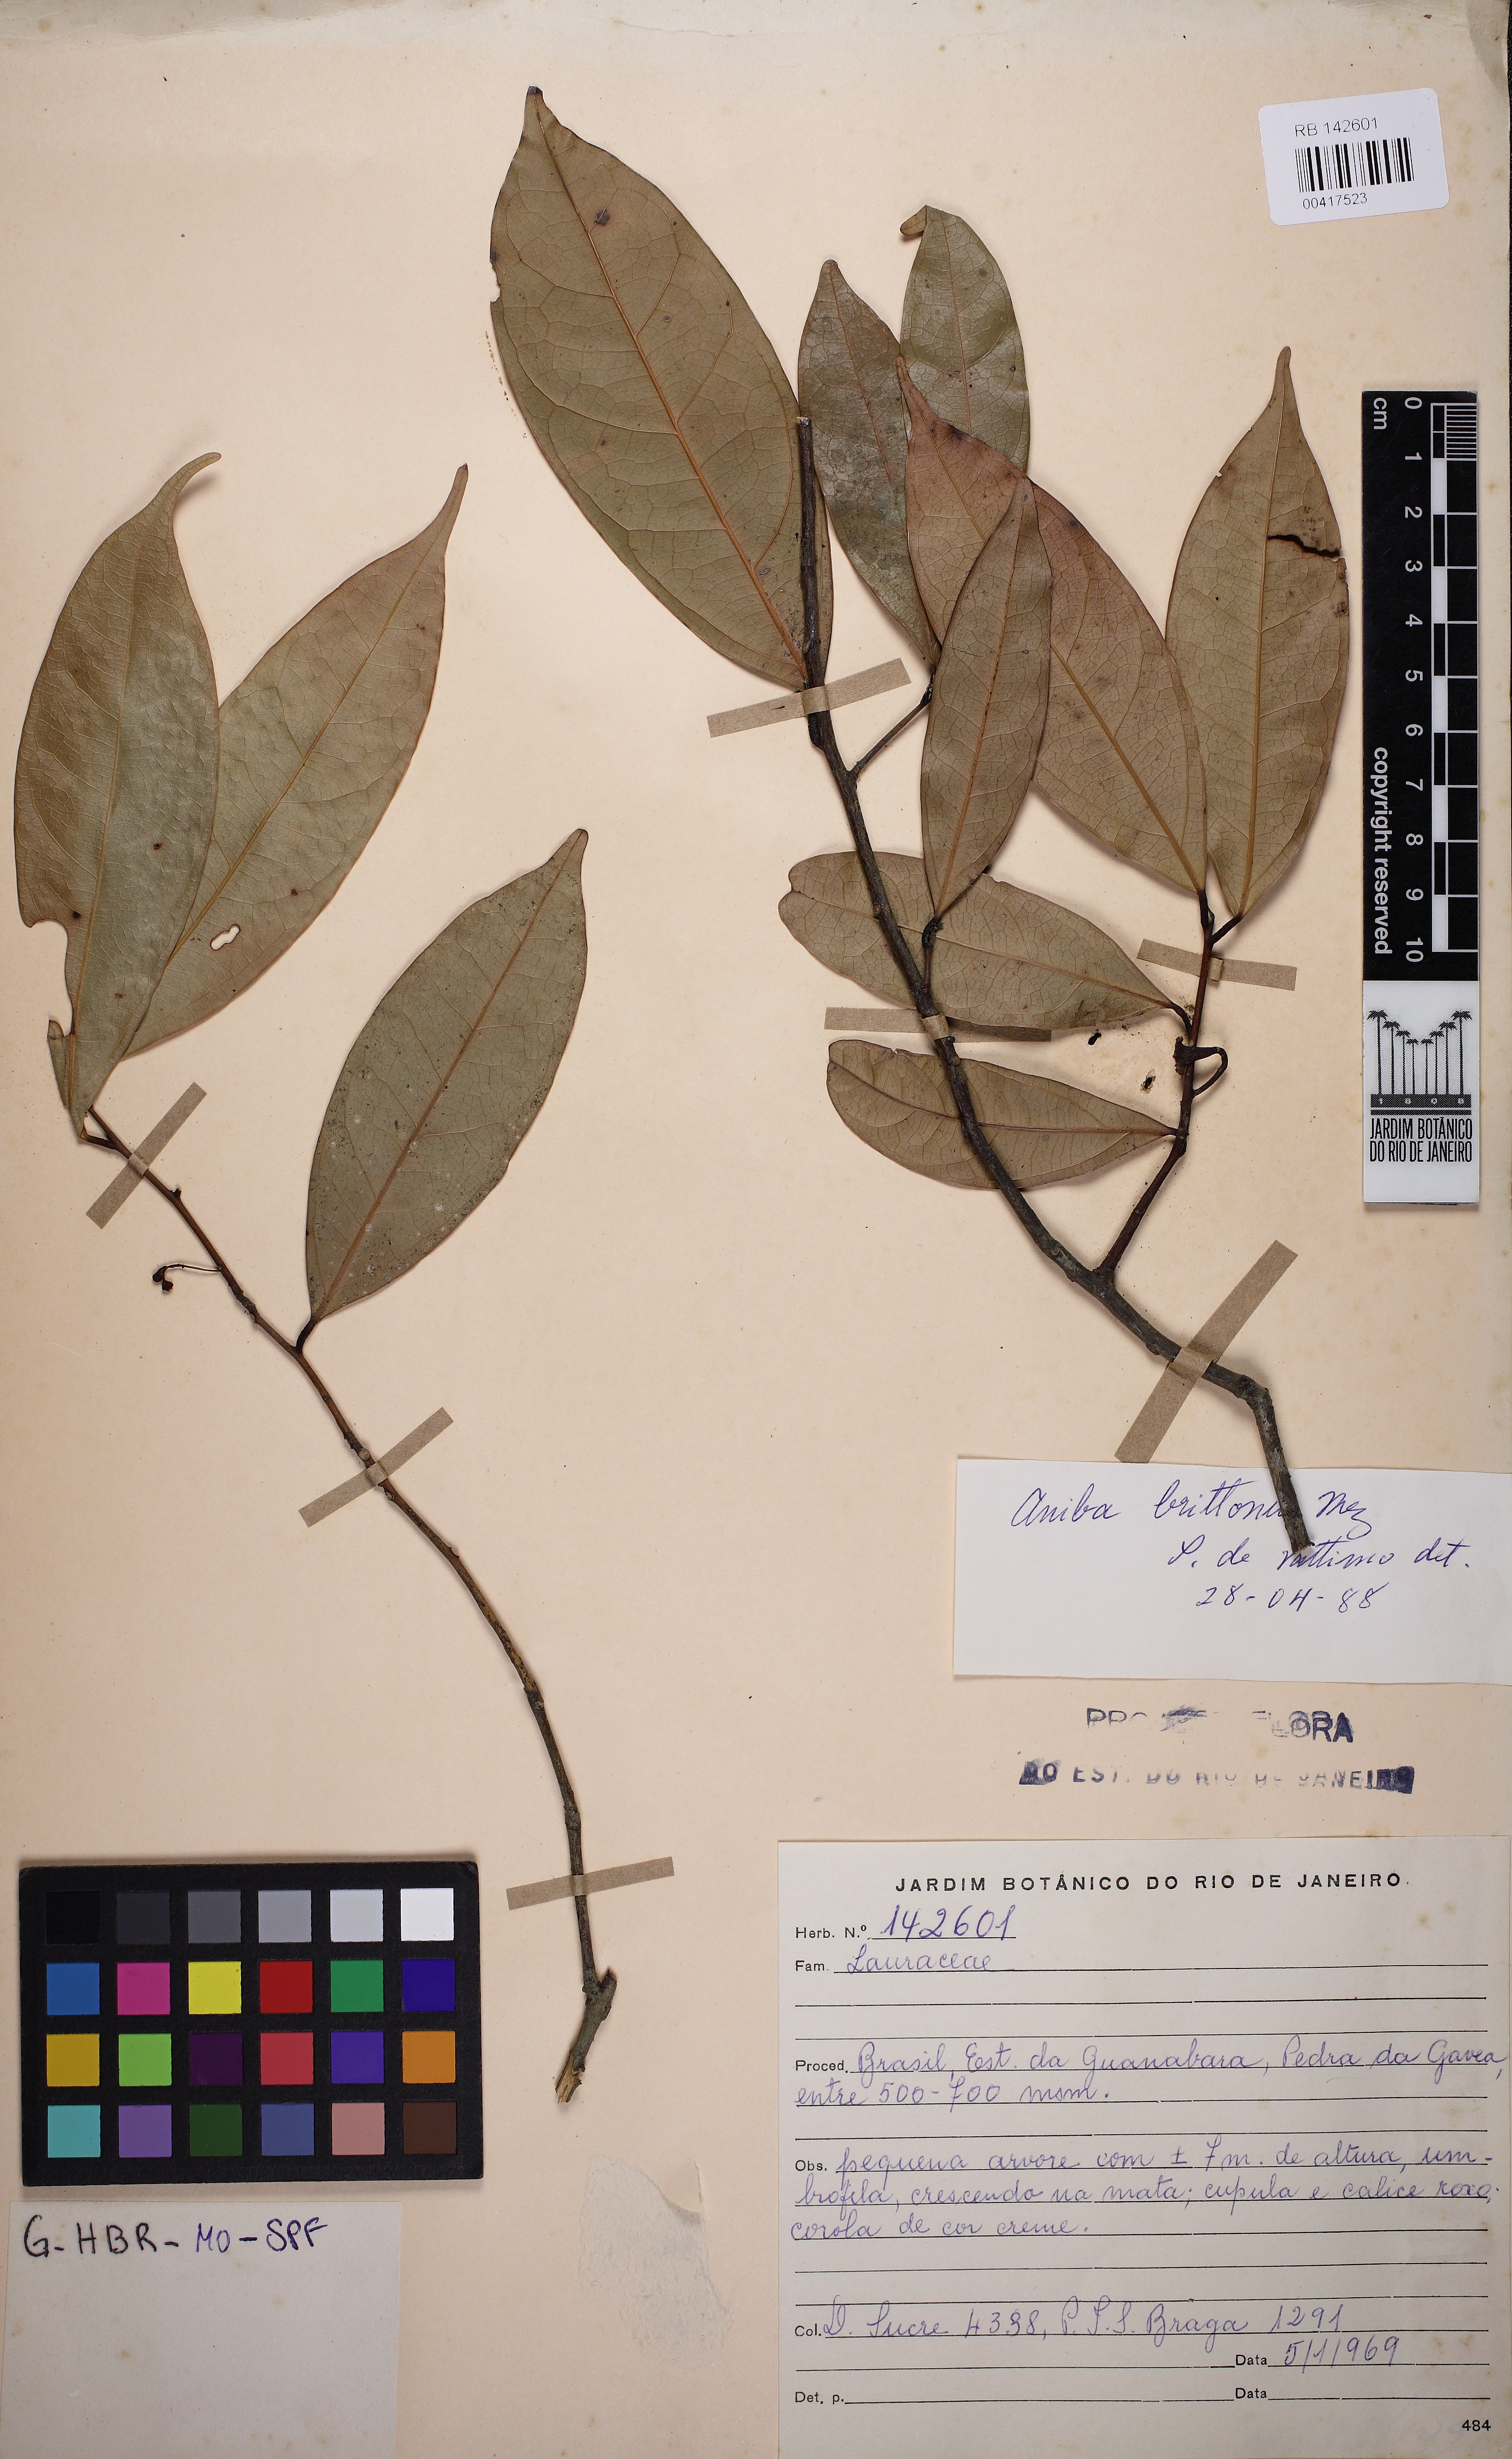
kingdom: Plantae
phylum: Tracheophyta
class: Magnoliopsida
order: Laurales
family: Lauraceae
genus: Aniba
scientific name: Aniba brittonii
